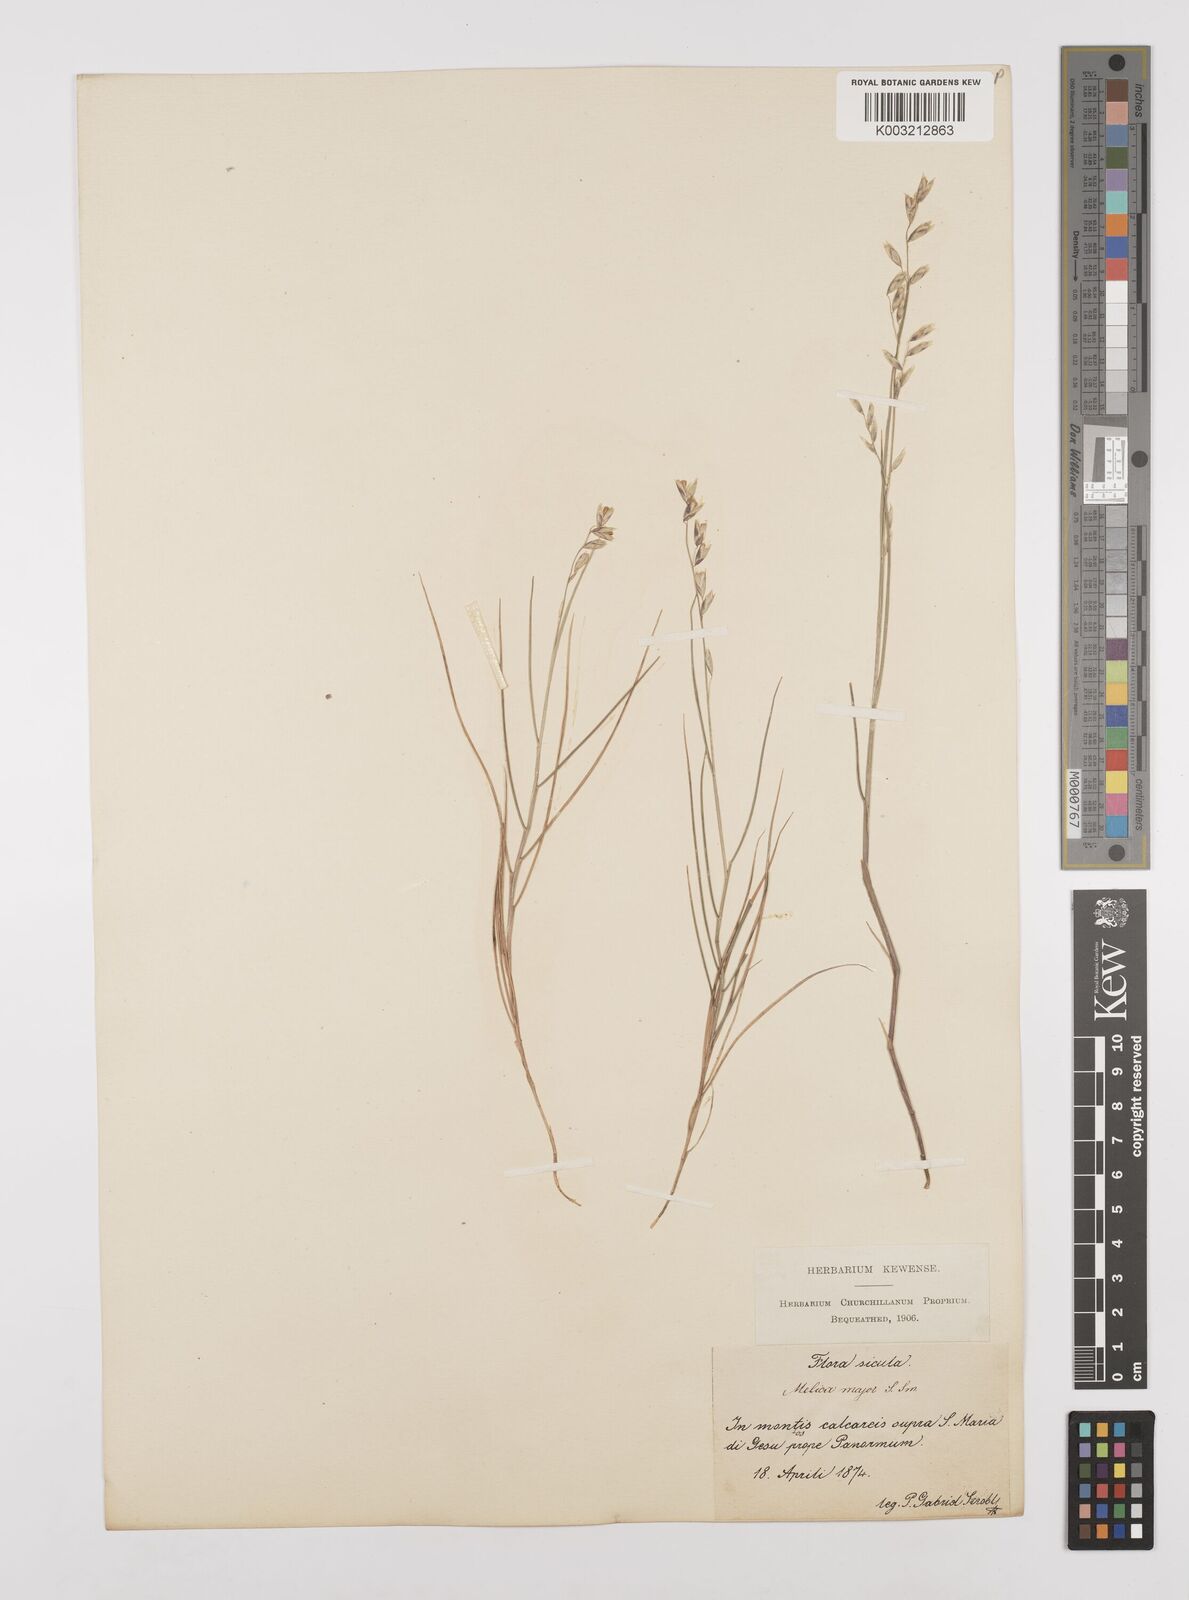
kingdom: Plantae
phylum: Tracheophyta
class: Liliopsida
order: Poales
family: Poaceae
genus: Melica
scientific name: Melica minuta
